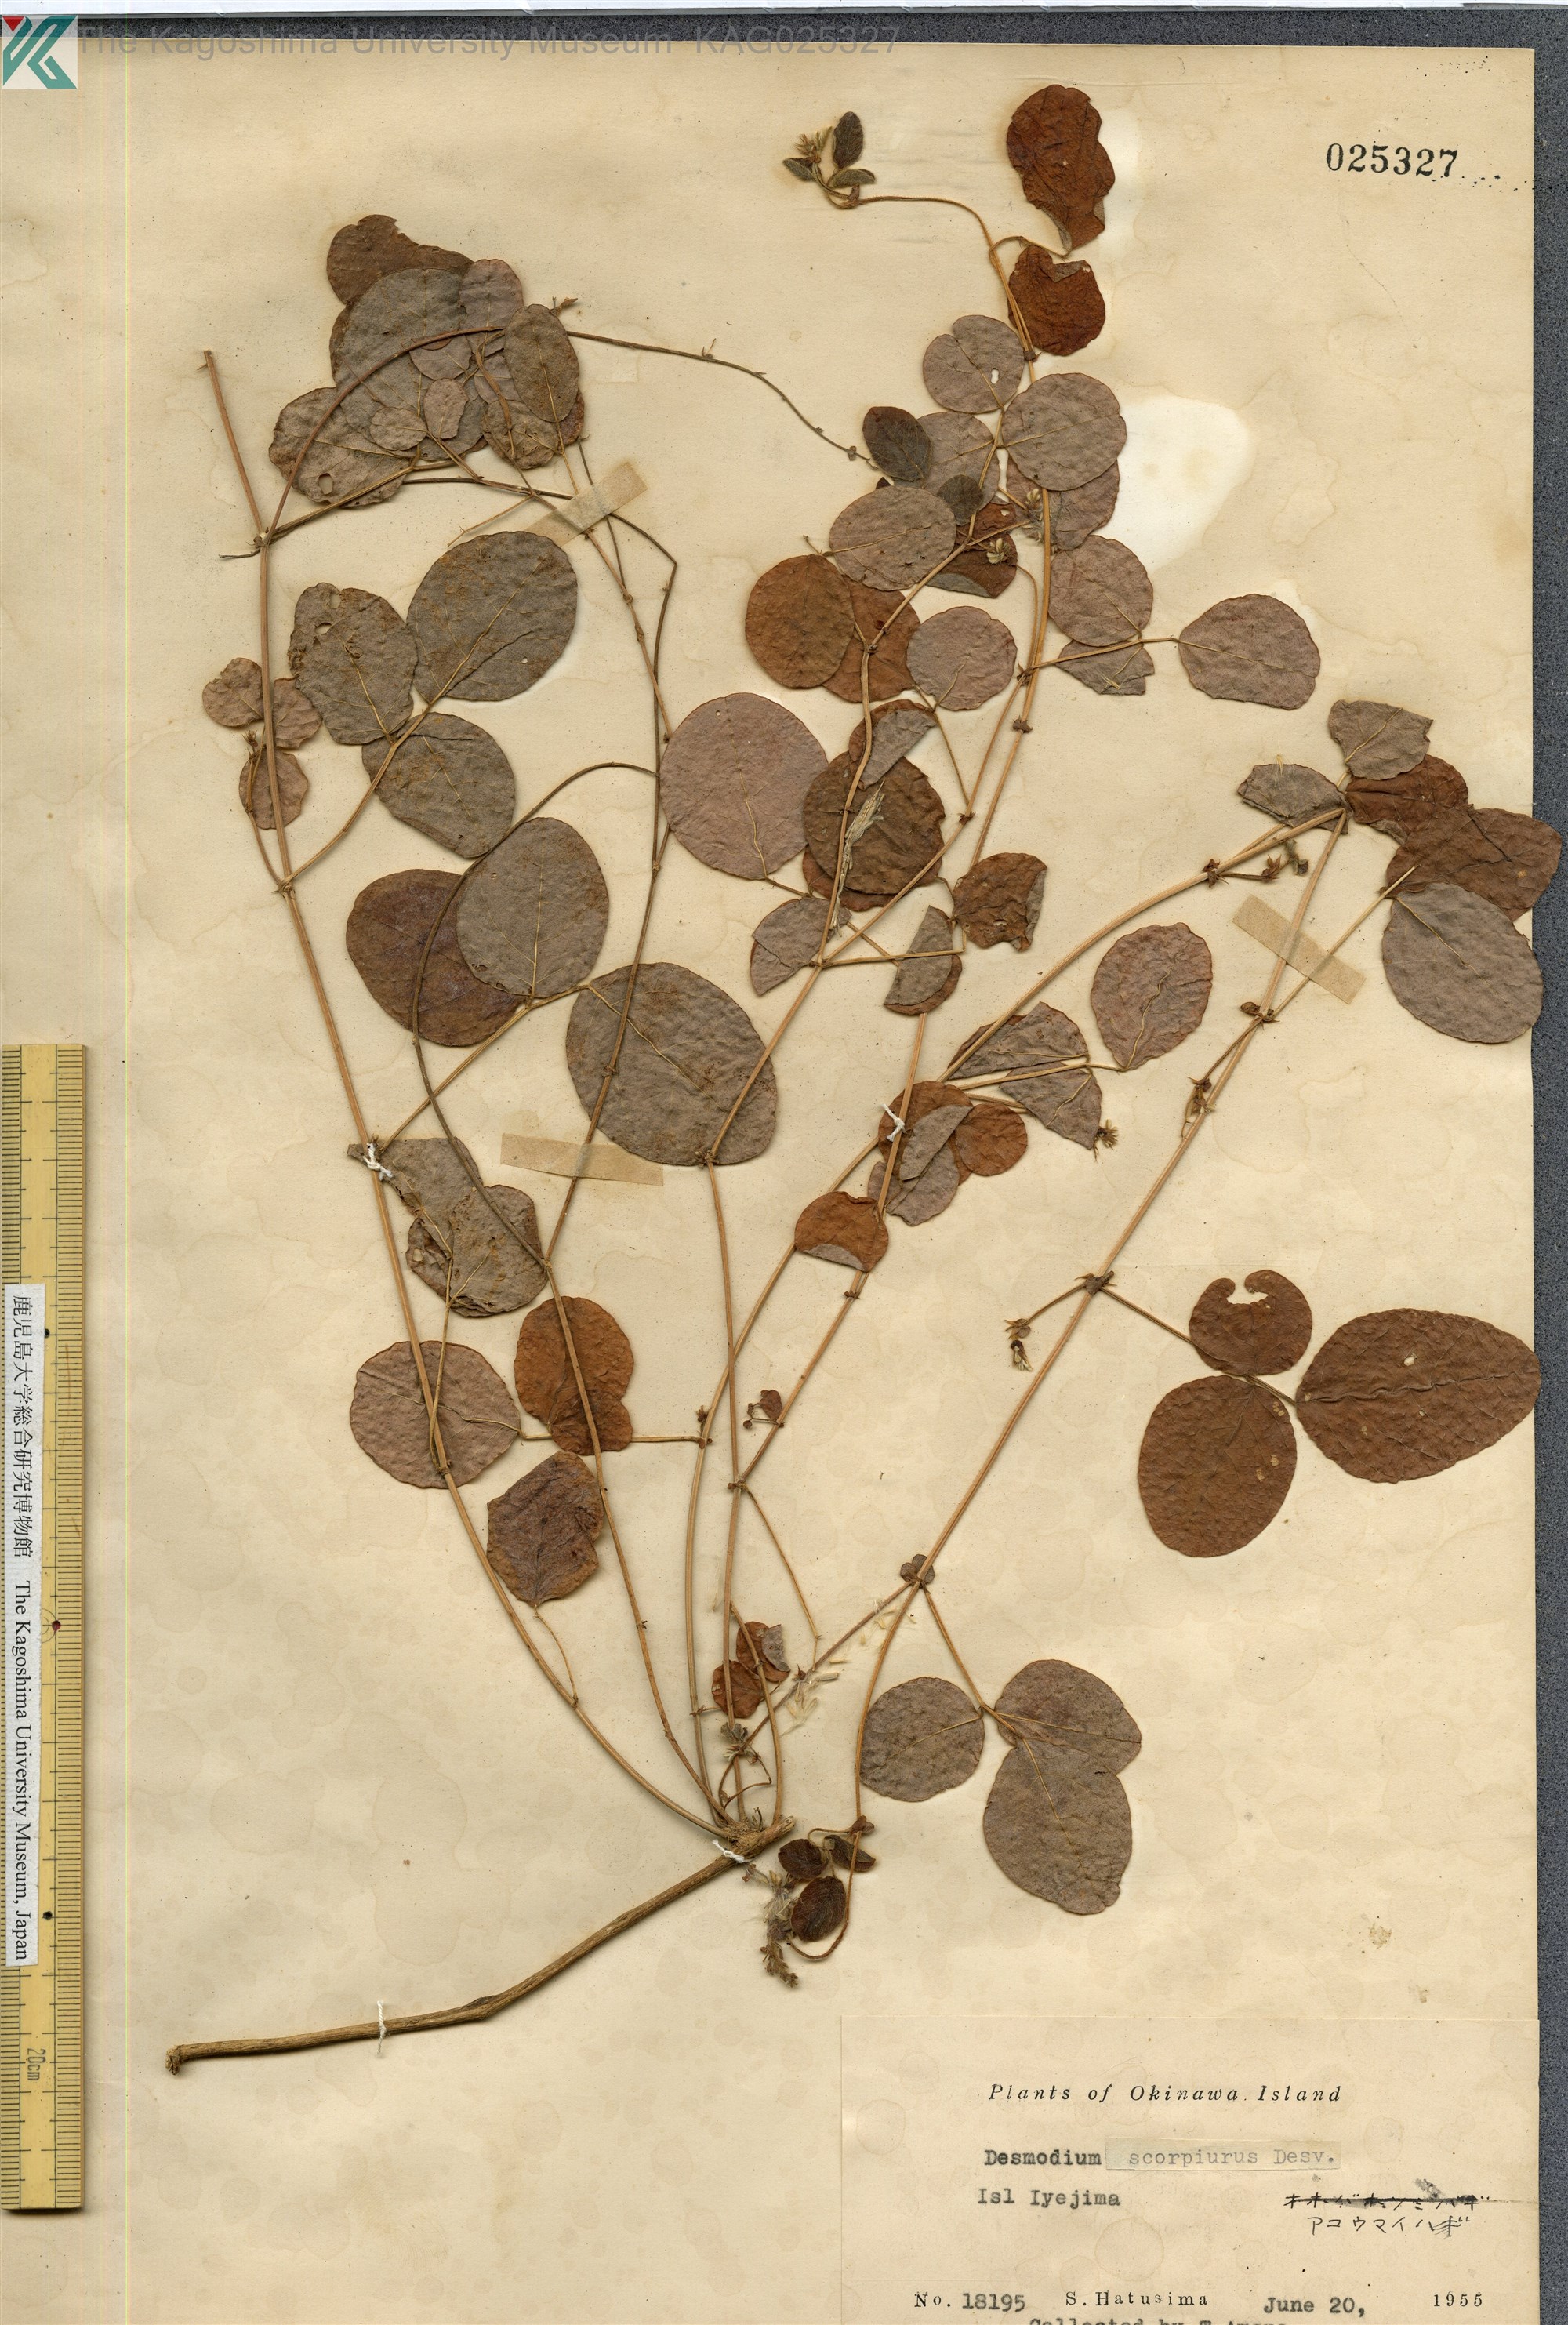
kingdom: Plantae
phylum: Tracheophyta
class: Magnoliopsida
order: Fabales
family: Fabaceae
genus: Desmodium
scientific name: Desmodium scorpiurus
